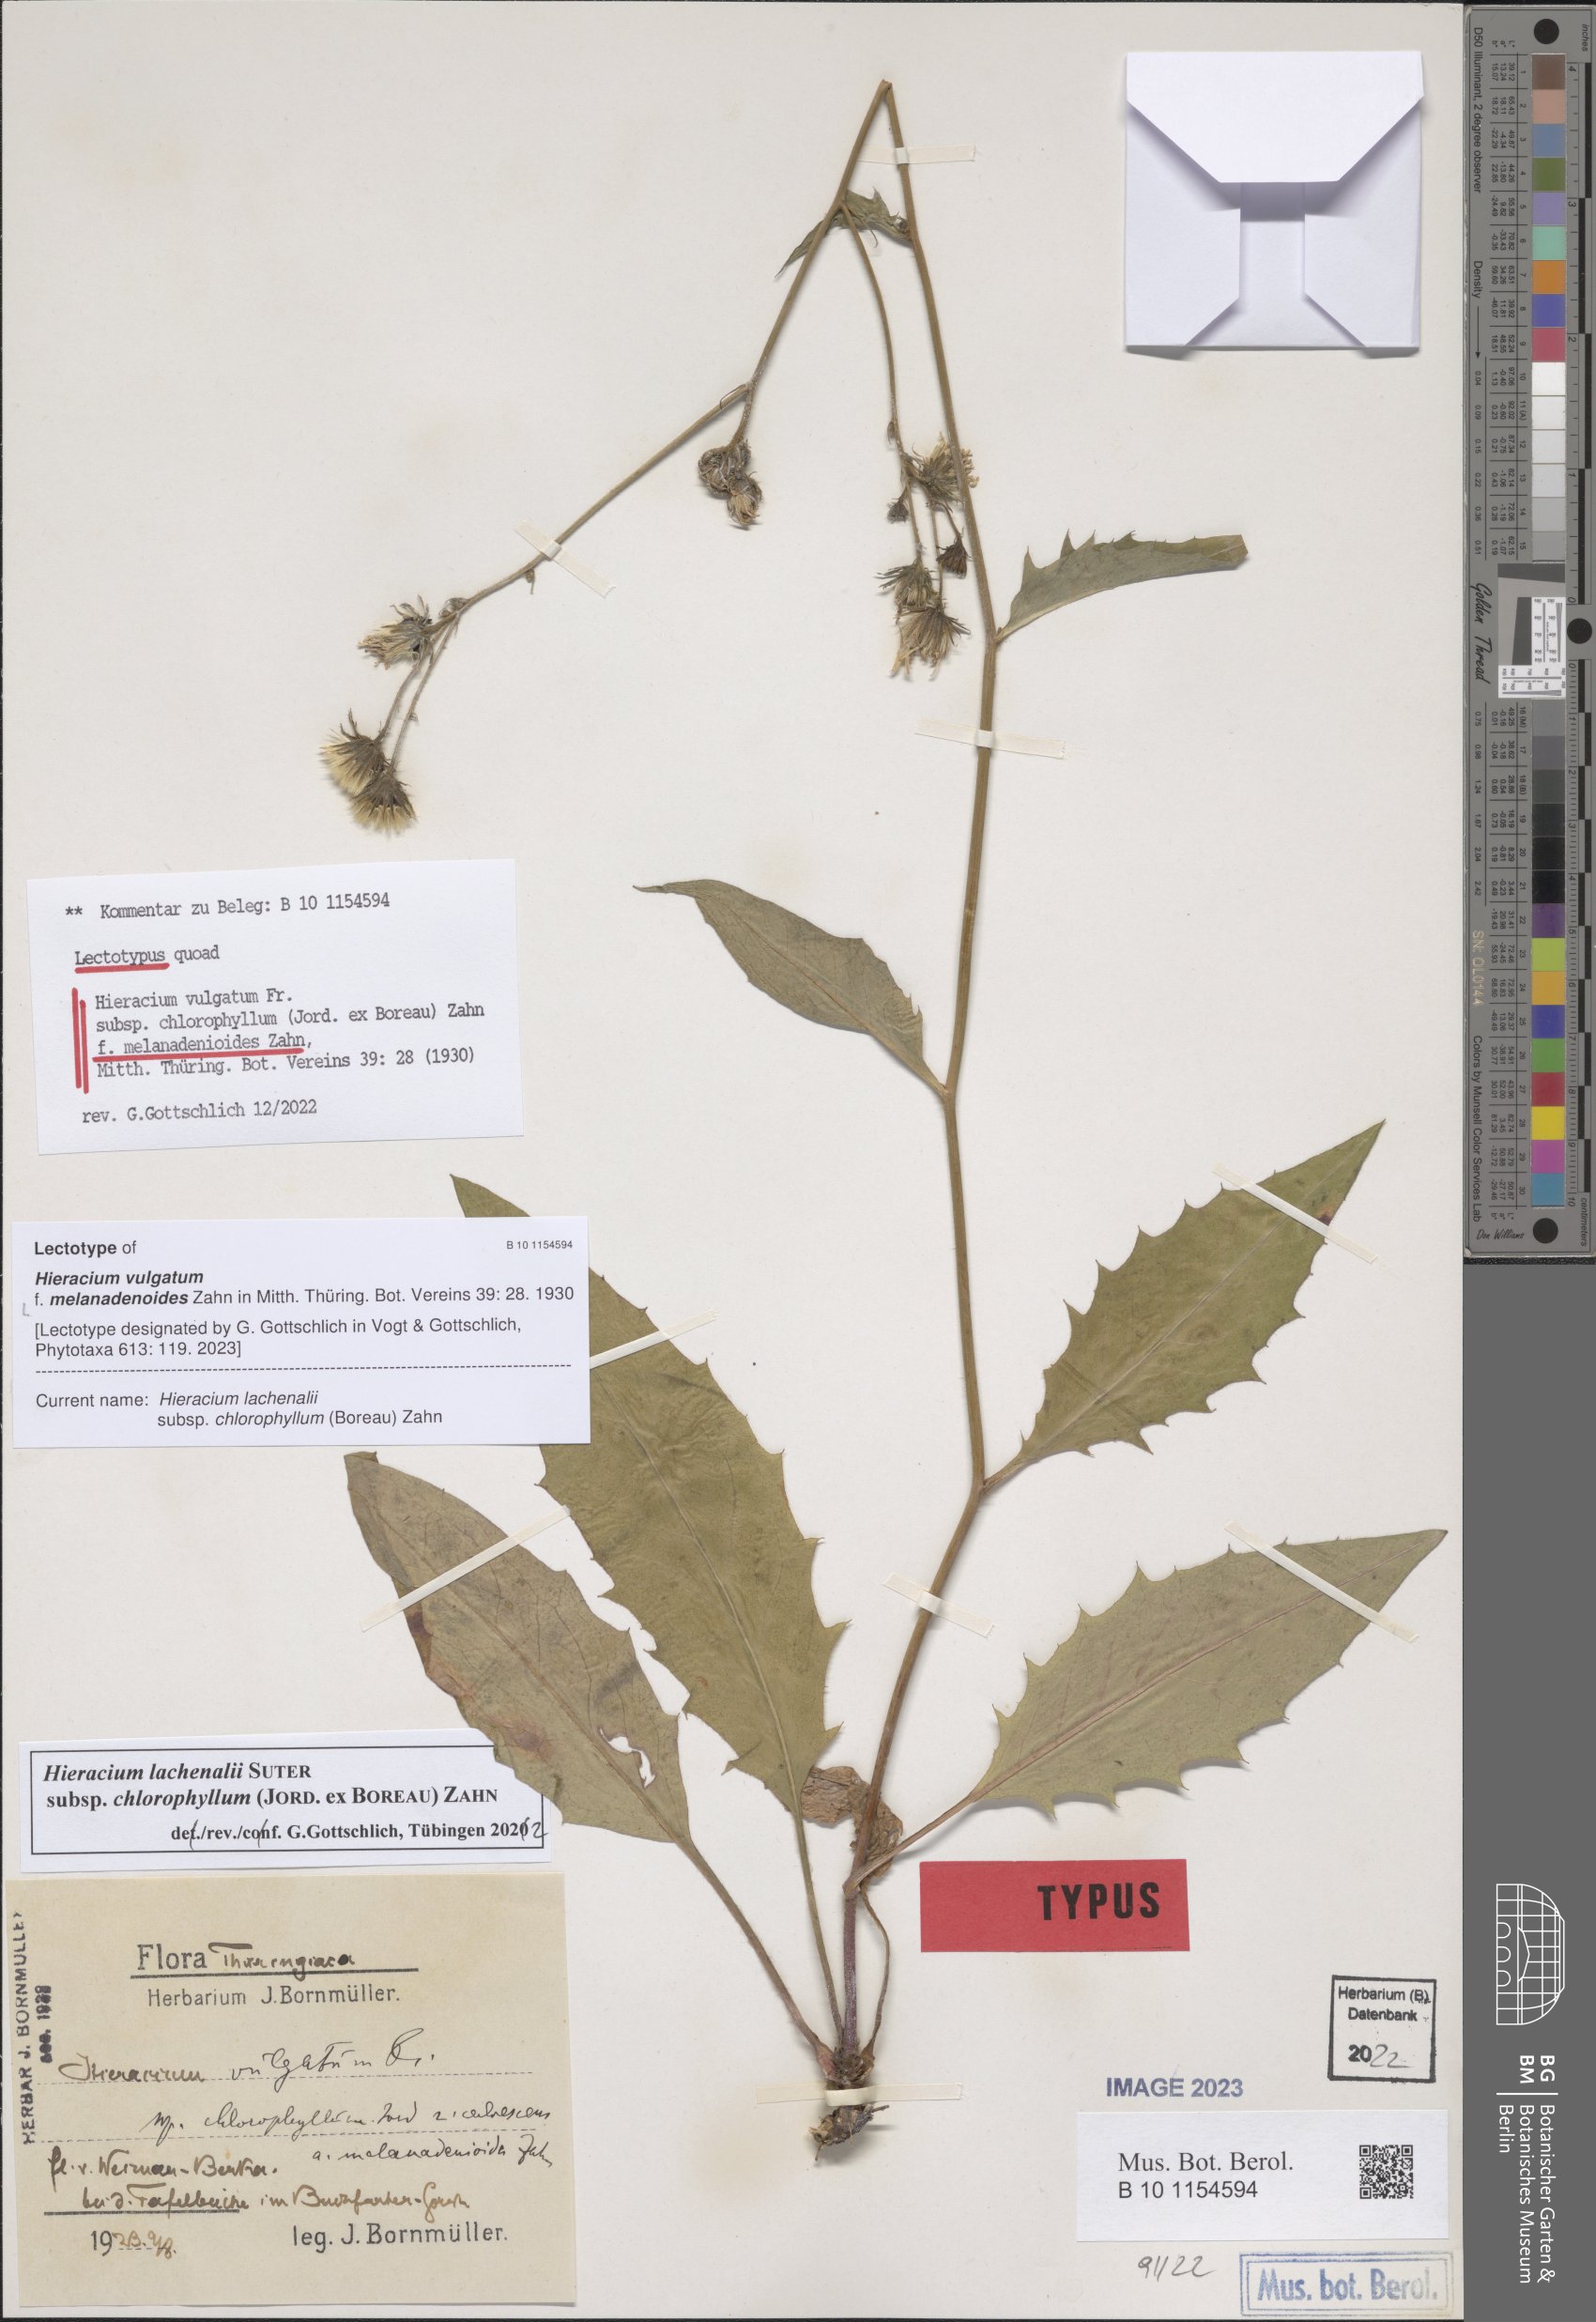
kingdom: Plantae
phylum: Tracheophyta
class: Magnoliopsida
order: Asterales
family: Asteraceae
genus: Hieracium
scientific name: Hieracium vulgatum
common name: Common hawkweed
